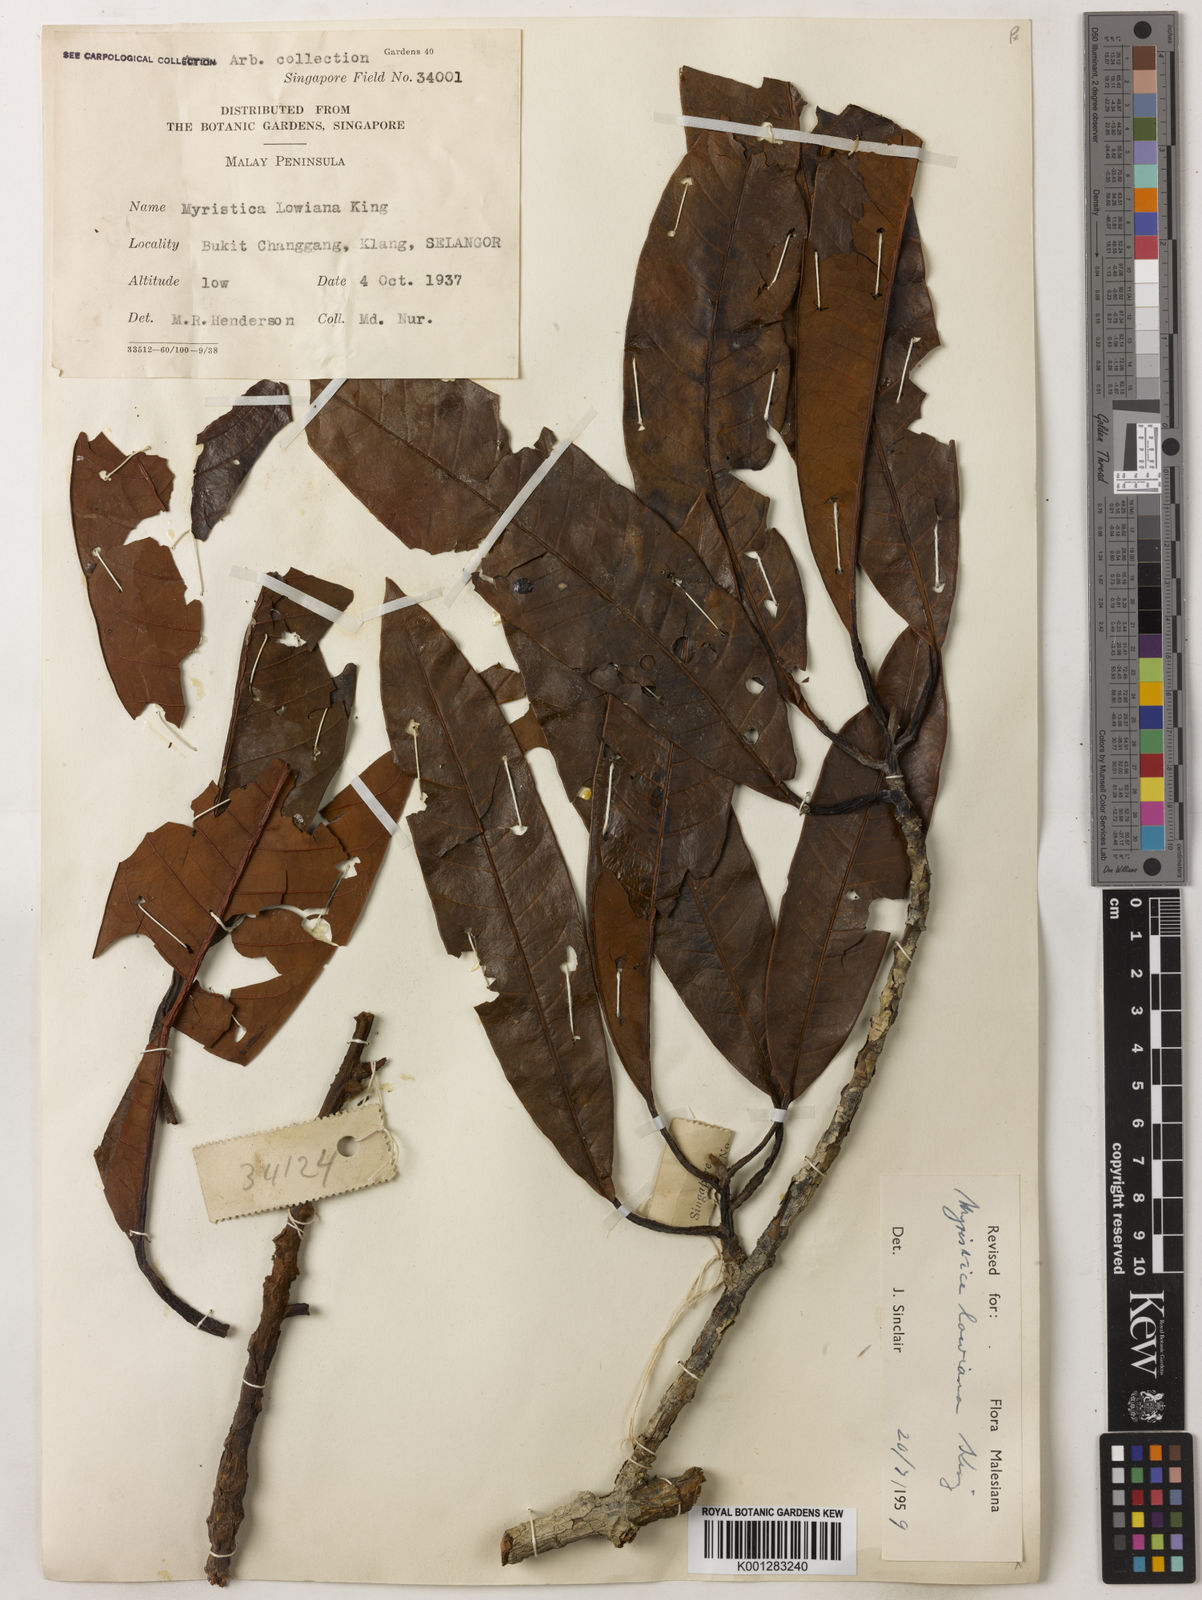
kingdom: Plantae
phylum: Tracheophyta
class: Magnoliopsida
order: Magnoliales
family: Myristicaceae
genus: Myristica
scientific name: Myristica lowiana
